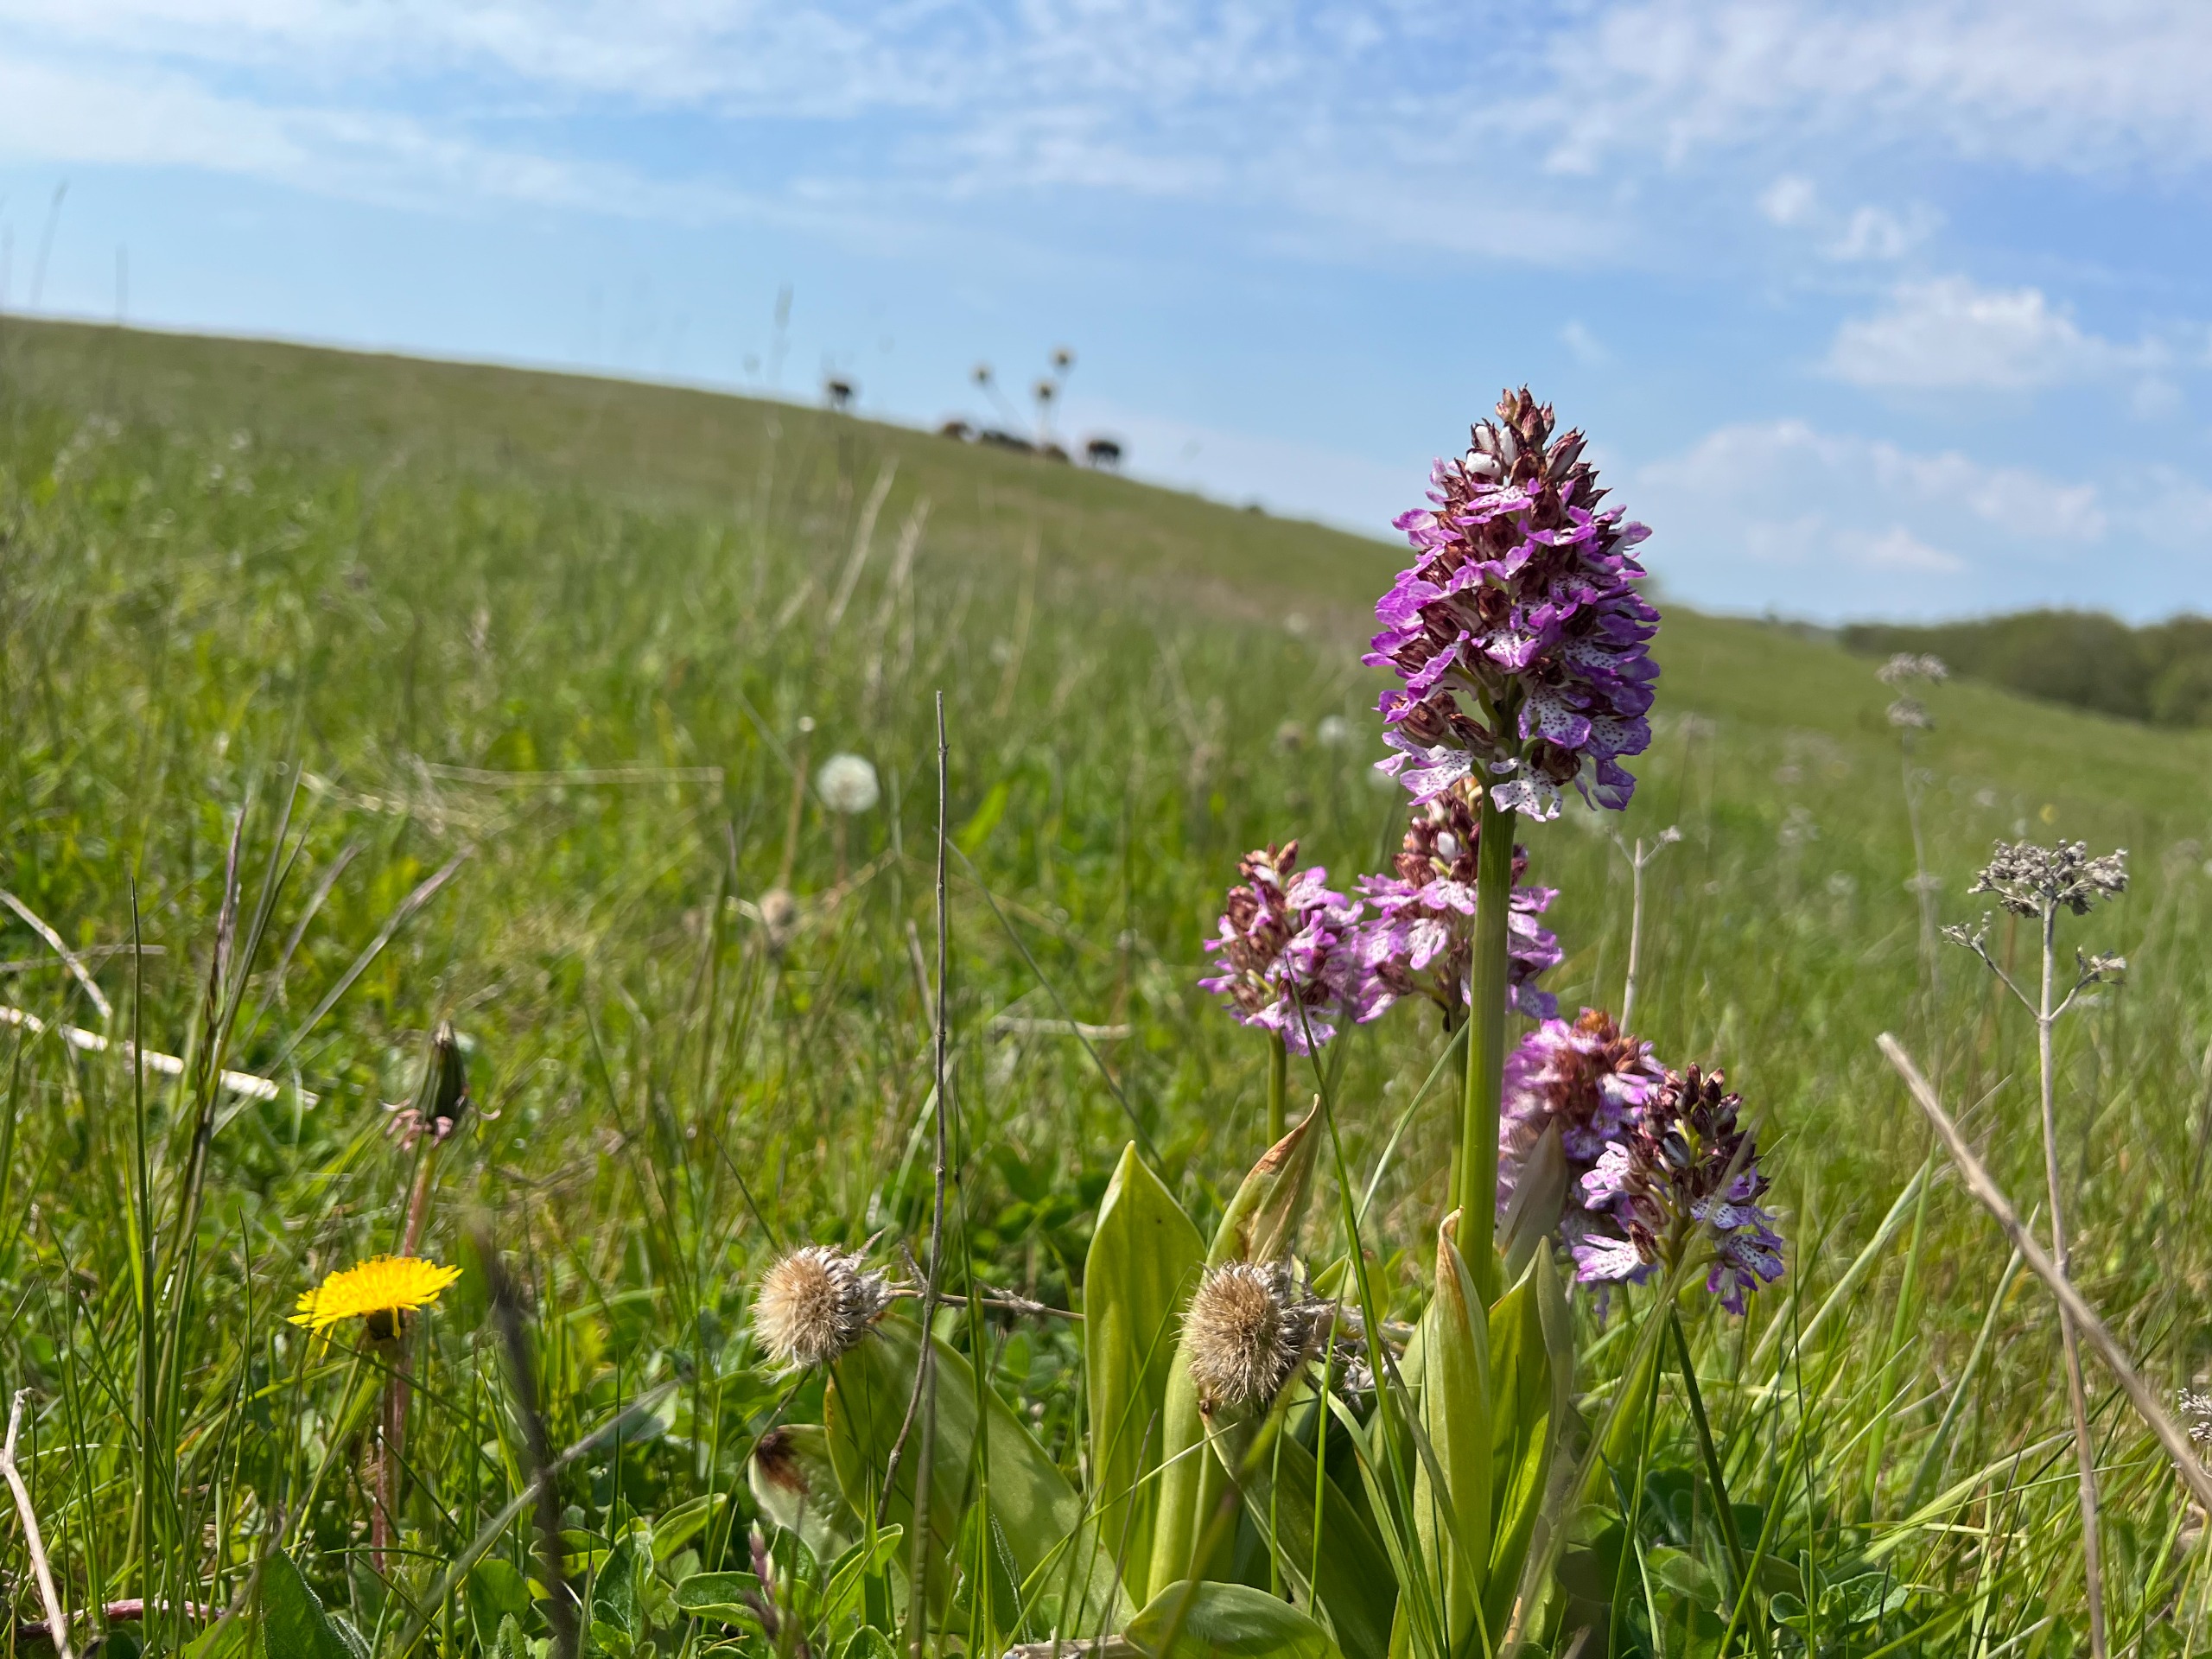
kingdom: Plantae
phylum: Tracheophyta
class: Liliopsida
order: Asparagales
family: Orchidaceae
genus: Orchis
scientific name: Orchis purpurea
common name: Stor gøgeurt
